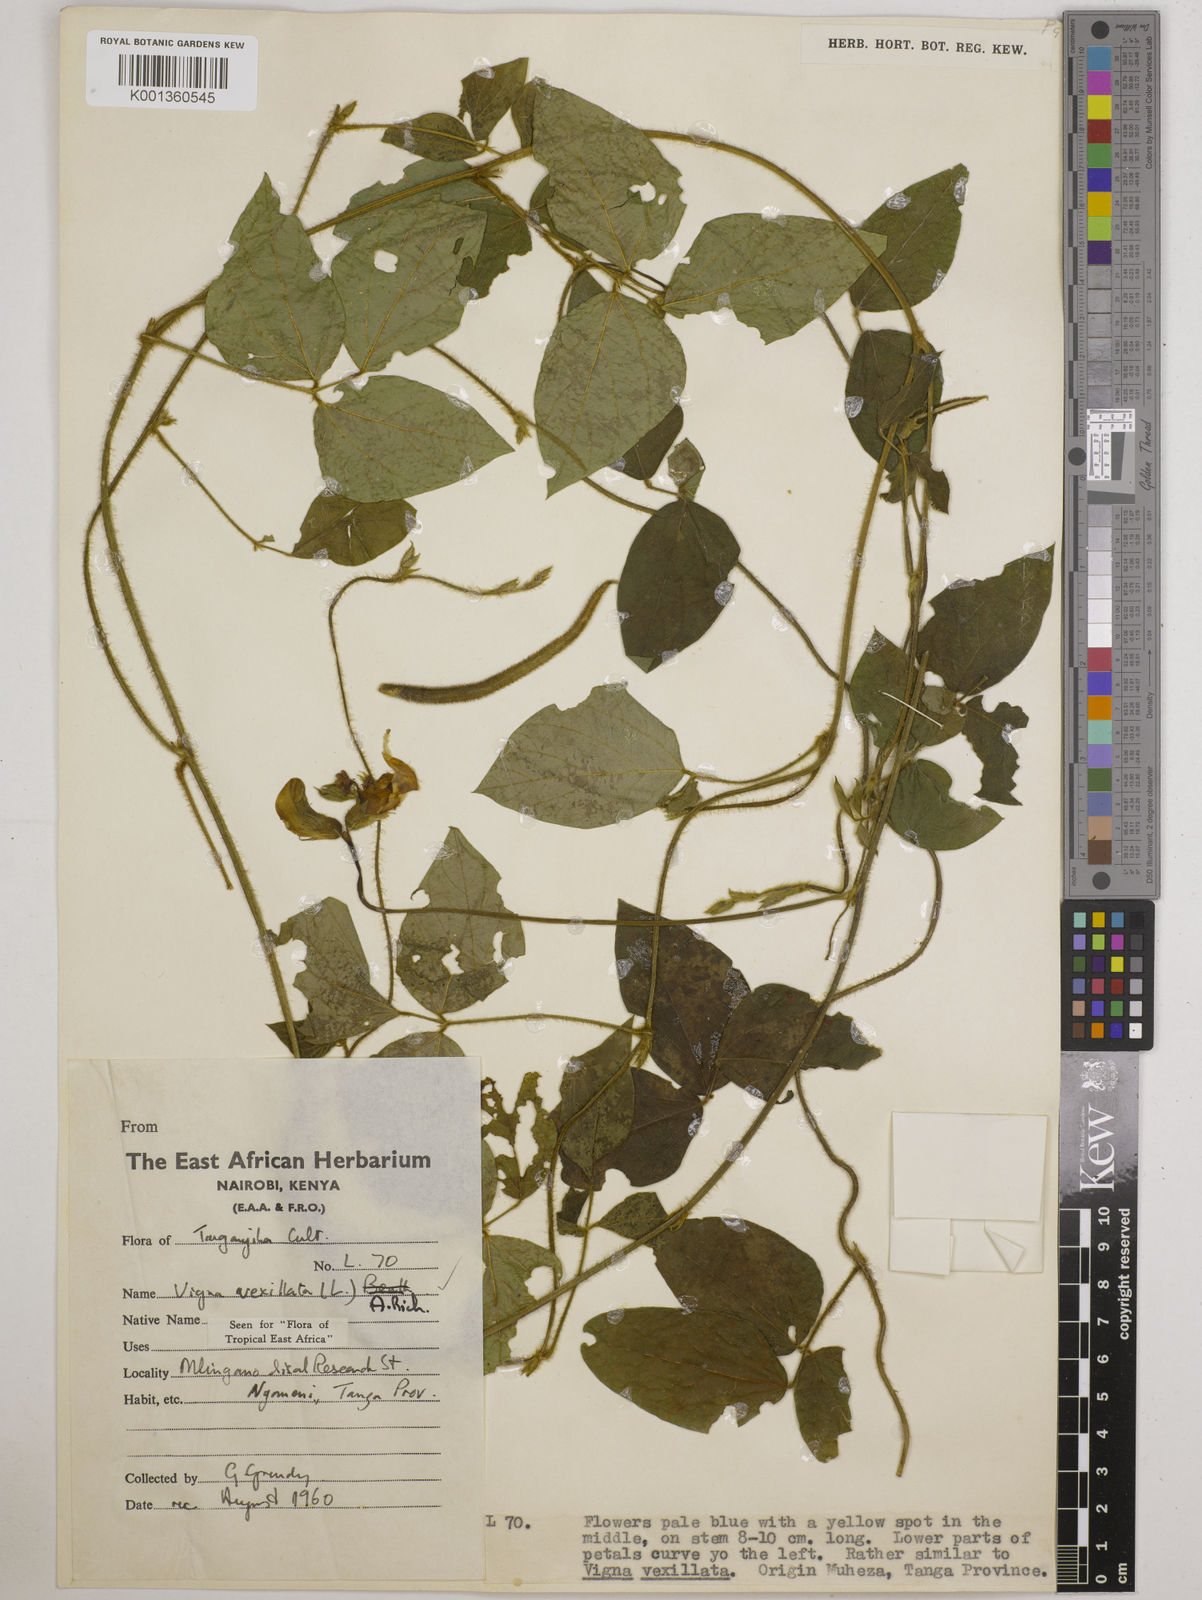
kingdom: Plantae
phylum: Tracheophyta
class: Magnoliopsida
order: Fabales
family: Fabaceae
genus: Vigna
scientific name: Vigna vexillata
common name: Zombi pea
